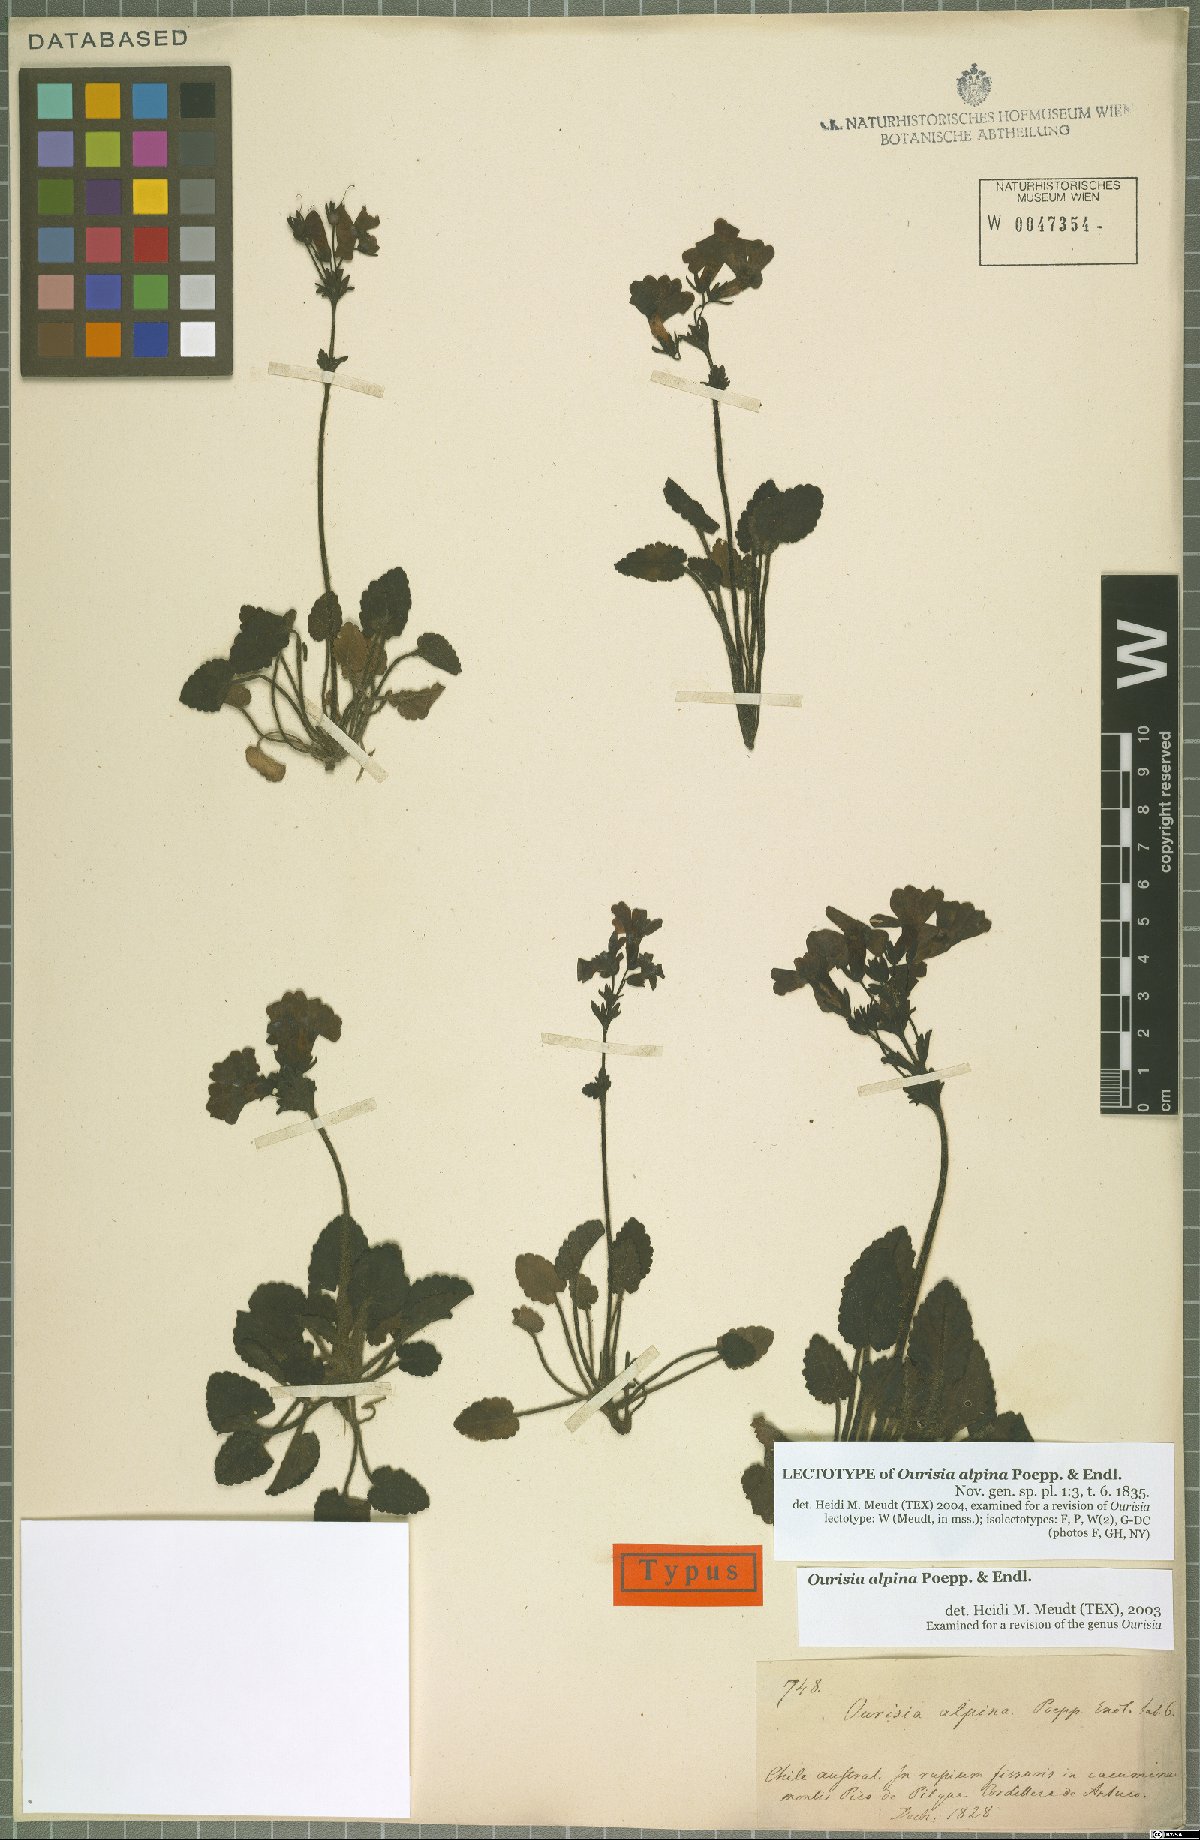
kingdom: Plantae
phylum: Tracheophyta
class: Magnoliopsida
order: Lamiales
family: Plantaginaceae
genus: Ourisia
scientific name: Ourisia alpina
